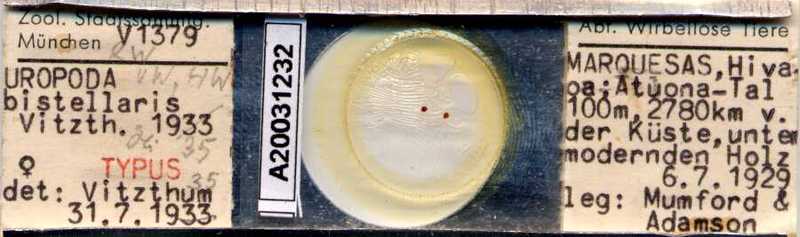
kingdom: Animalia
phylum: Arthropoda
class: Arachnida
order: Mesostigmata
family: Uropodidae
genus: Uroobovella
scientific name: Uroobovella bistellaris
